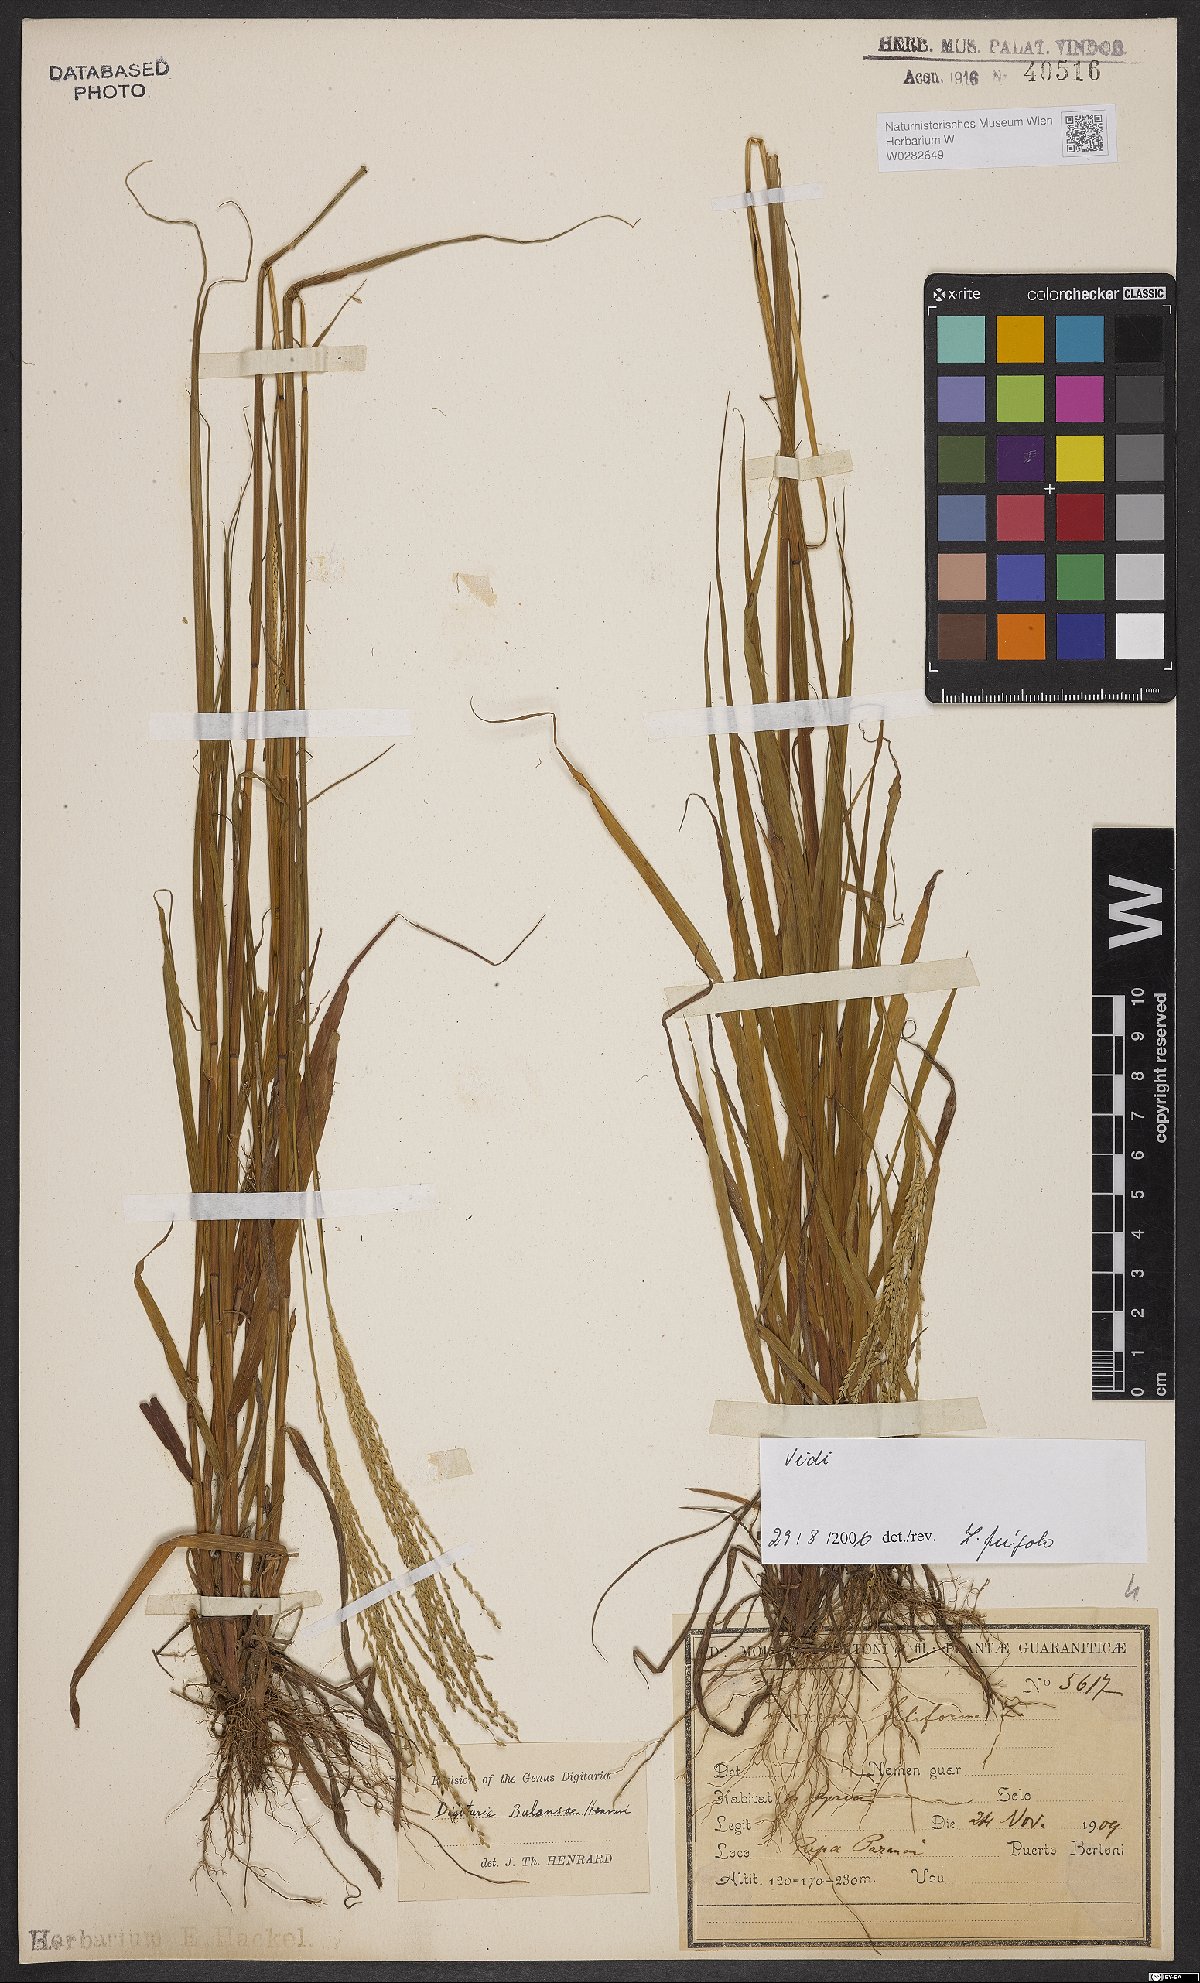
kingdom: Plantae
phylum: Tracheophyta
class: Liliopsida
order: Poales
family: Poaceae
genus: Digitaria
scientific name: Digitaria balansae
